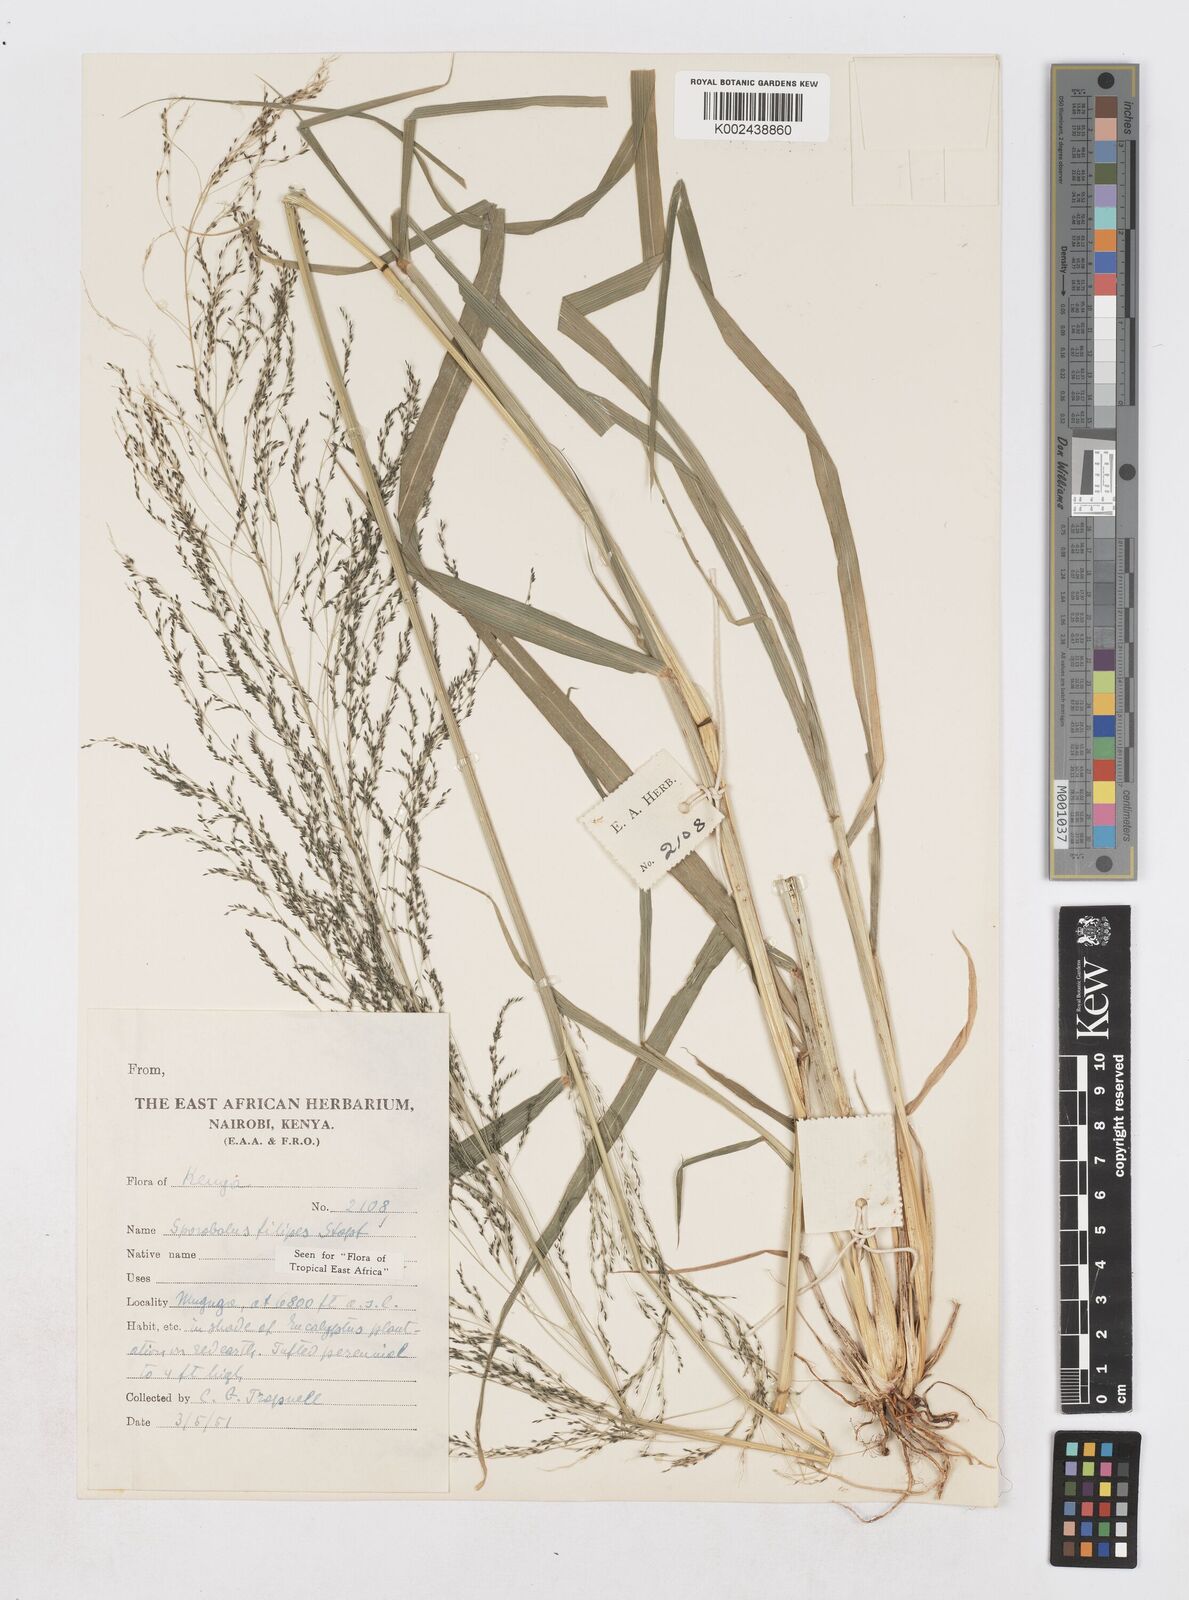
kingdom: Plantae
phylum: Tracheophyta
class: Liliopsida
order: Poales
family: Poaceae
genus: Sporobolus
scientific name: Sporobolus agrostoides
